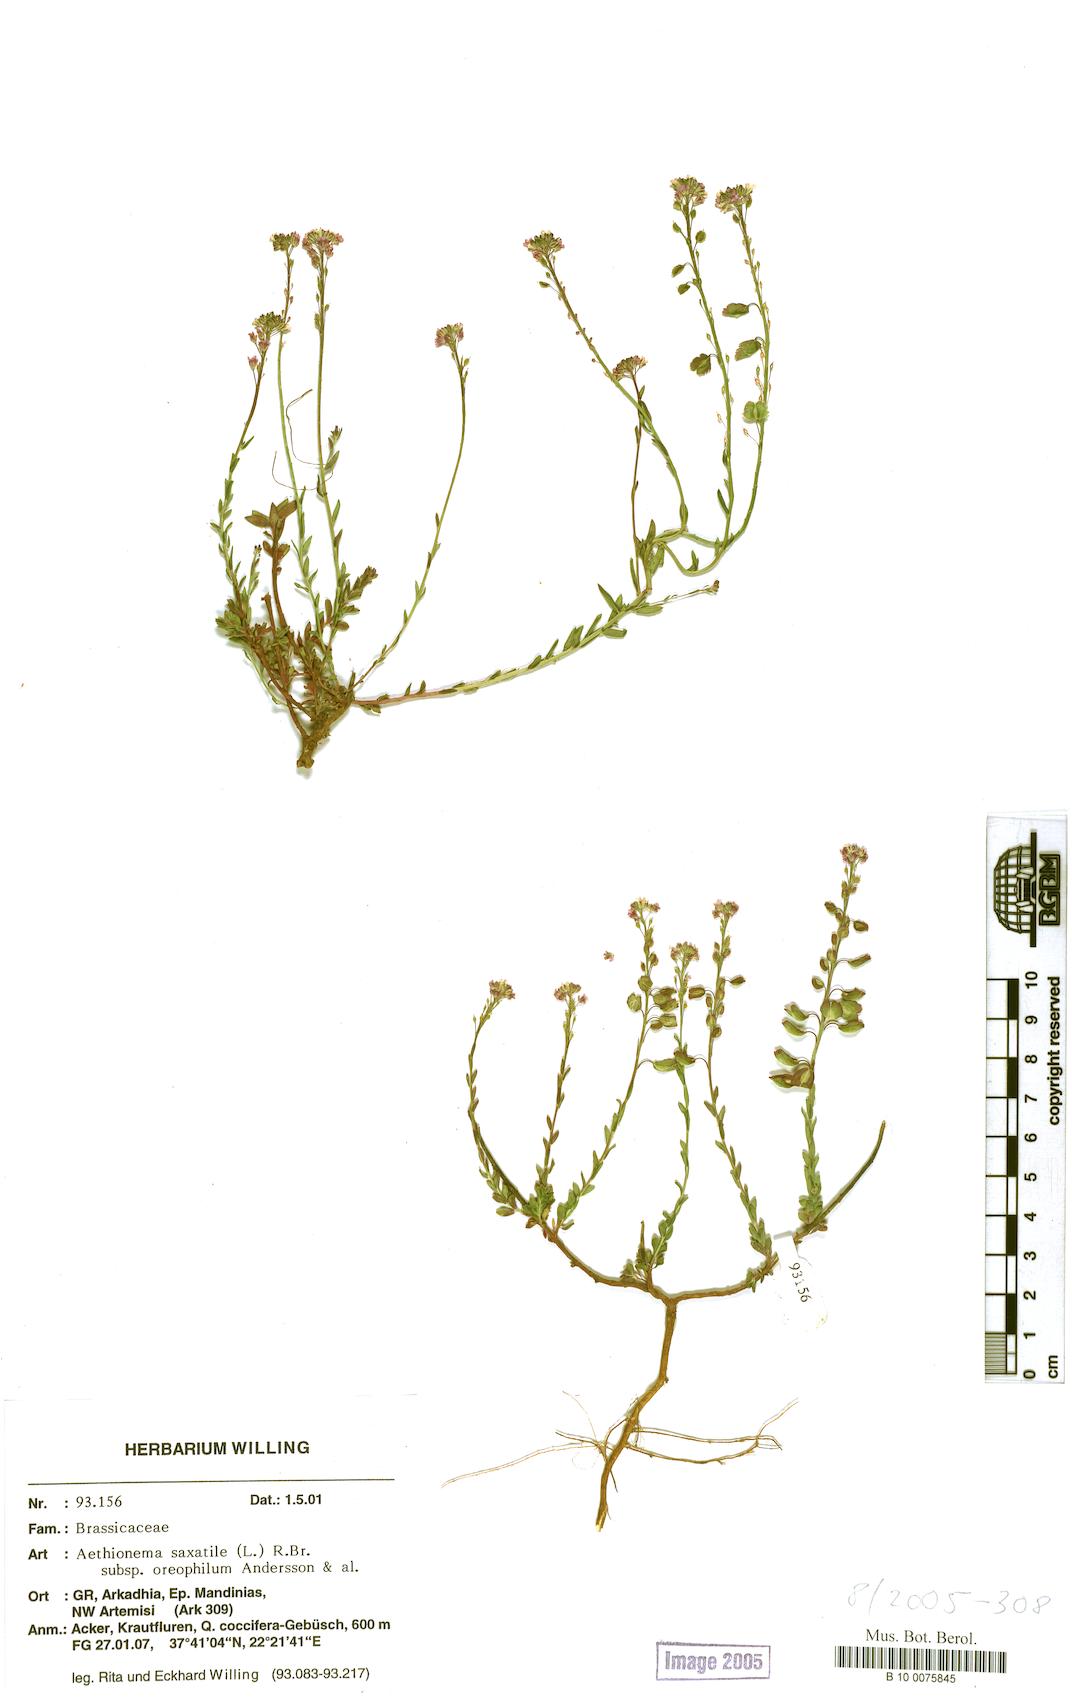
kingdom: Plantae
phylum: Tracheophyta
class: Magnoliopsida
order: Brassicales
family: Brassicaceae
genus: Aethionema
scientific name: Aethionema saxatile
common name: Burnt candytuft
